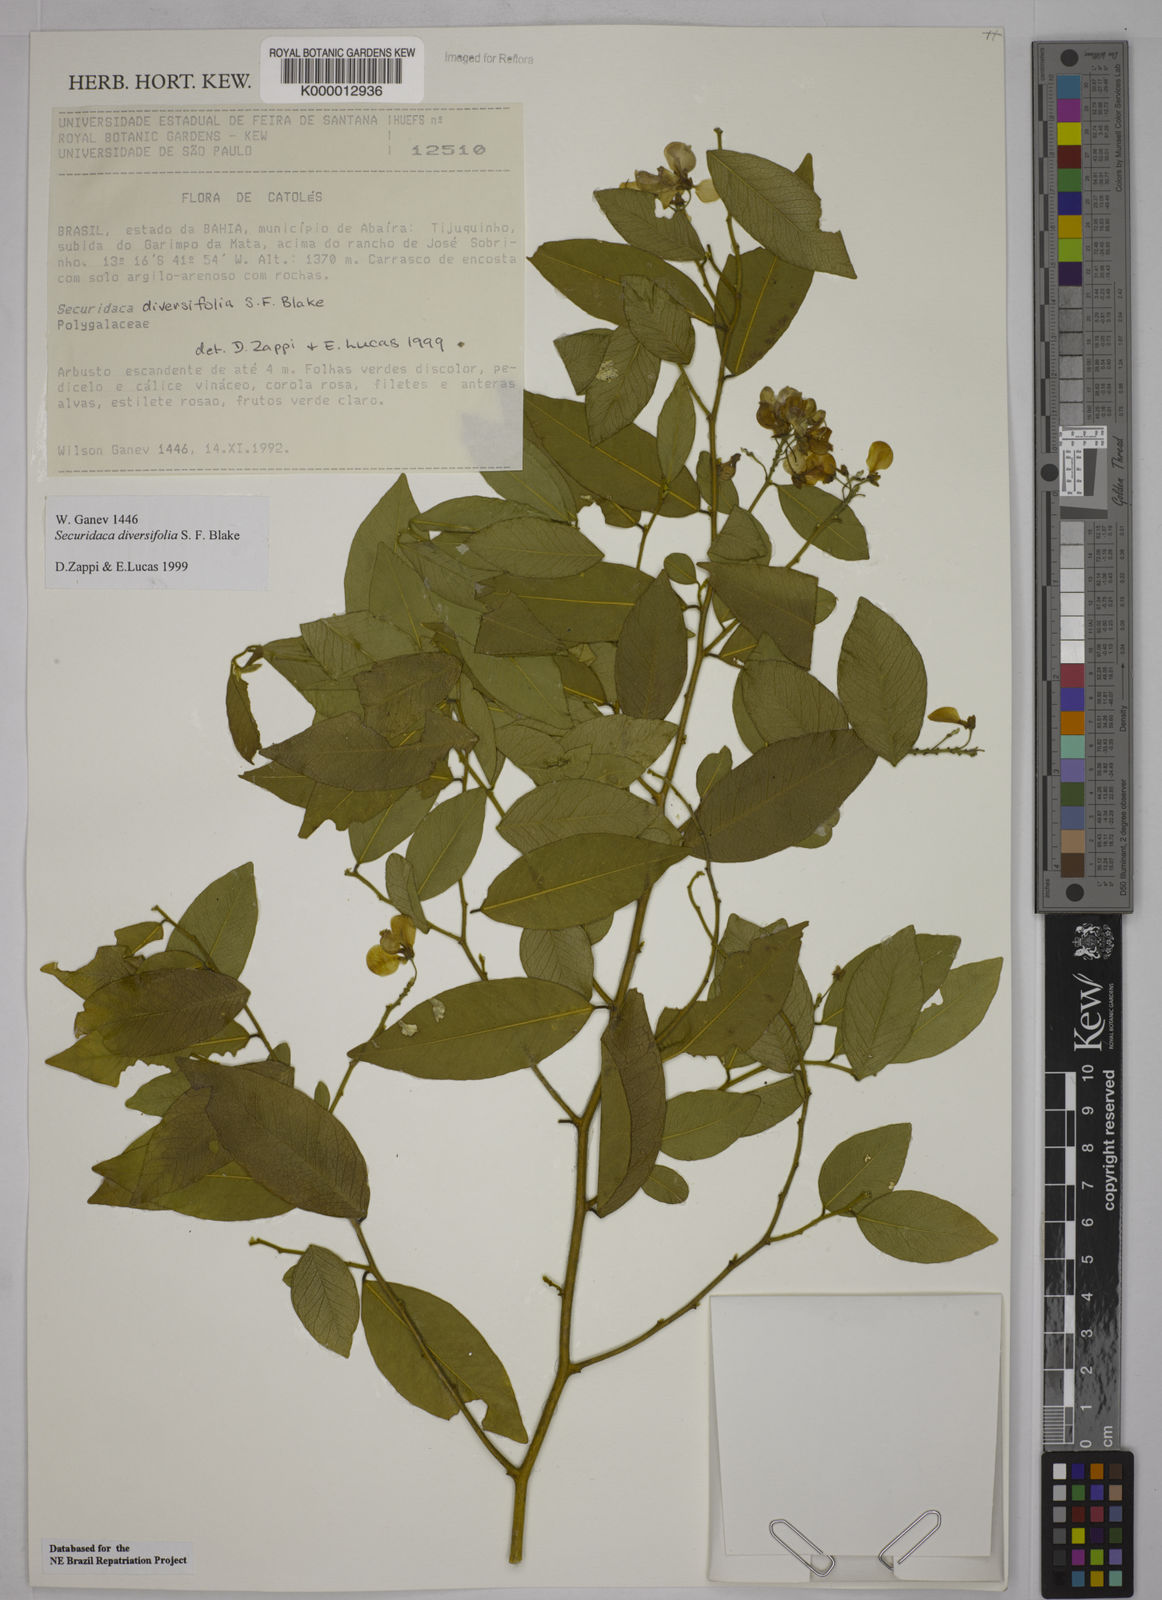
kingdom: Plantae
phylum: Tracheophyta
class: Magnoliopsida
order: Fabales
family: Polygalaceae
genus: Securidaca
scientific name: Securidaca diversifolia
